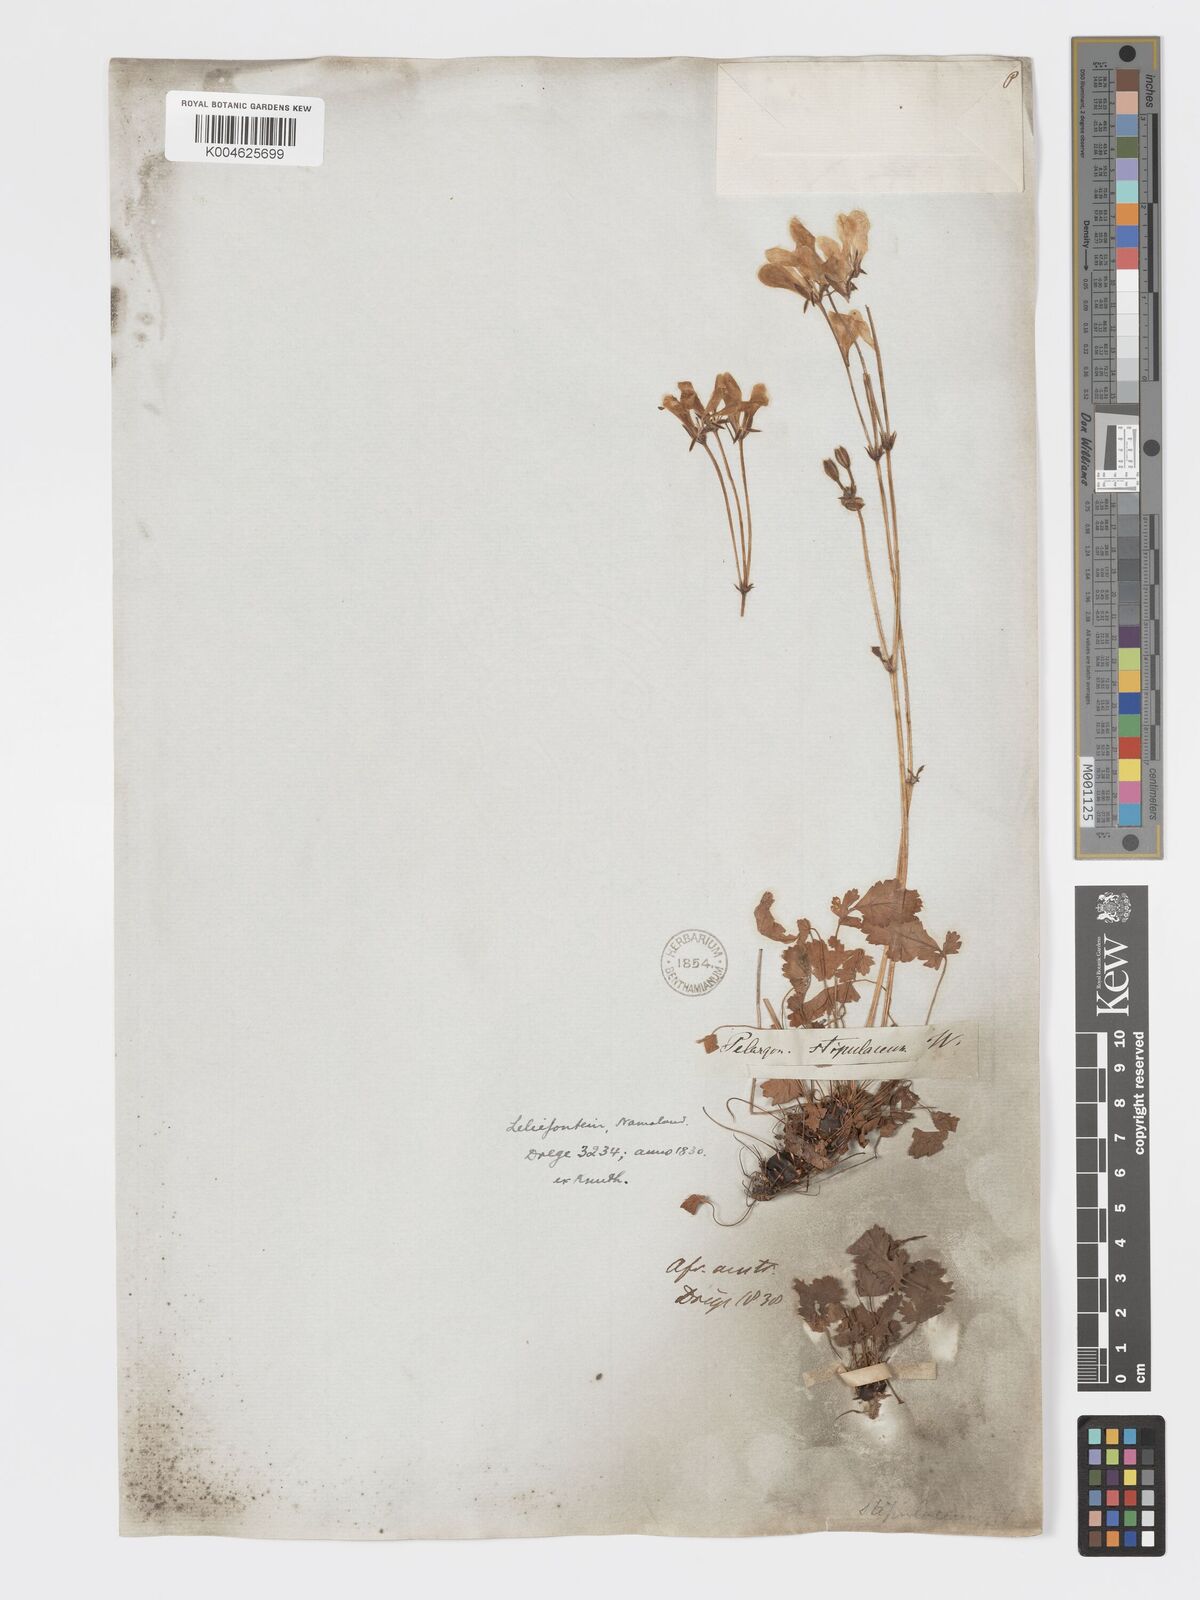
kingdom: Plantae
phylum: Tracheophyta
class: Magnoliopsida
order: Geraniales
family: Geraniaceae
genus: Pelargonium
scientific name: Pelargonium stipulaceum
